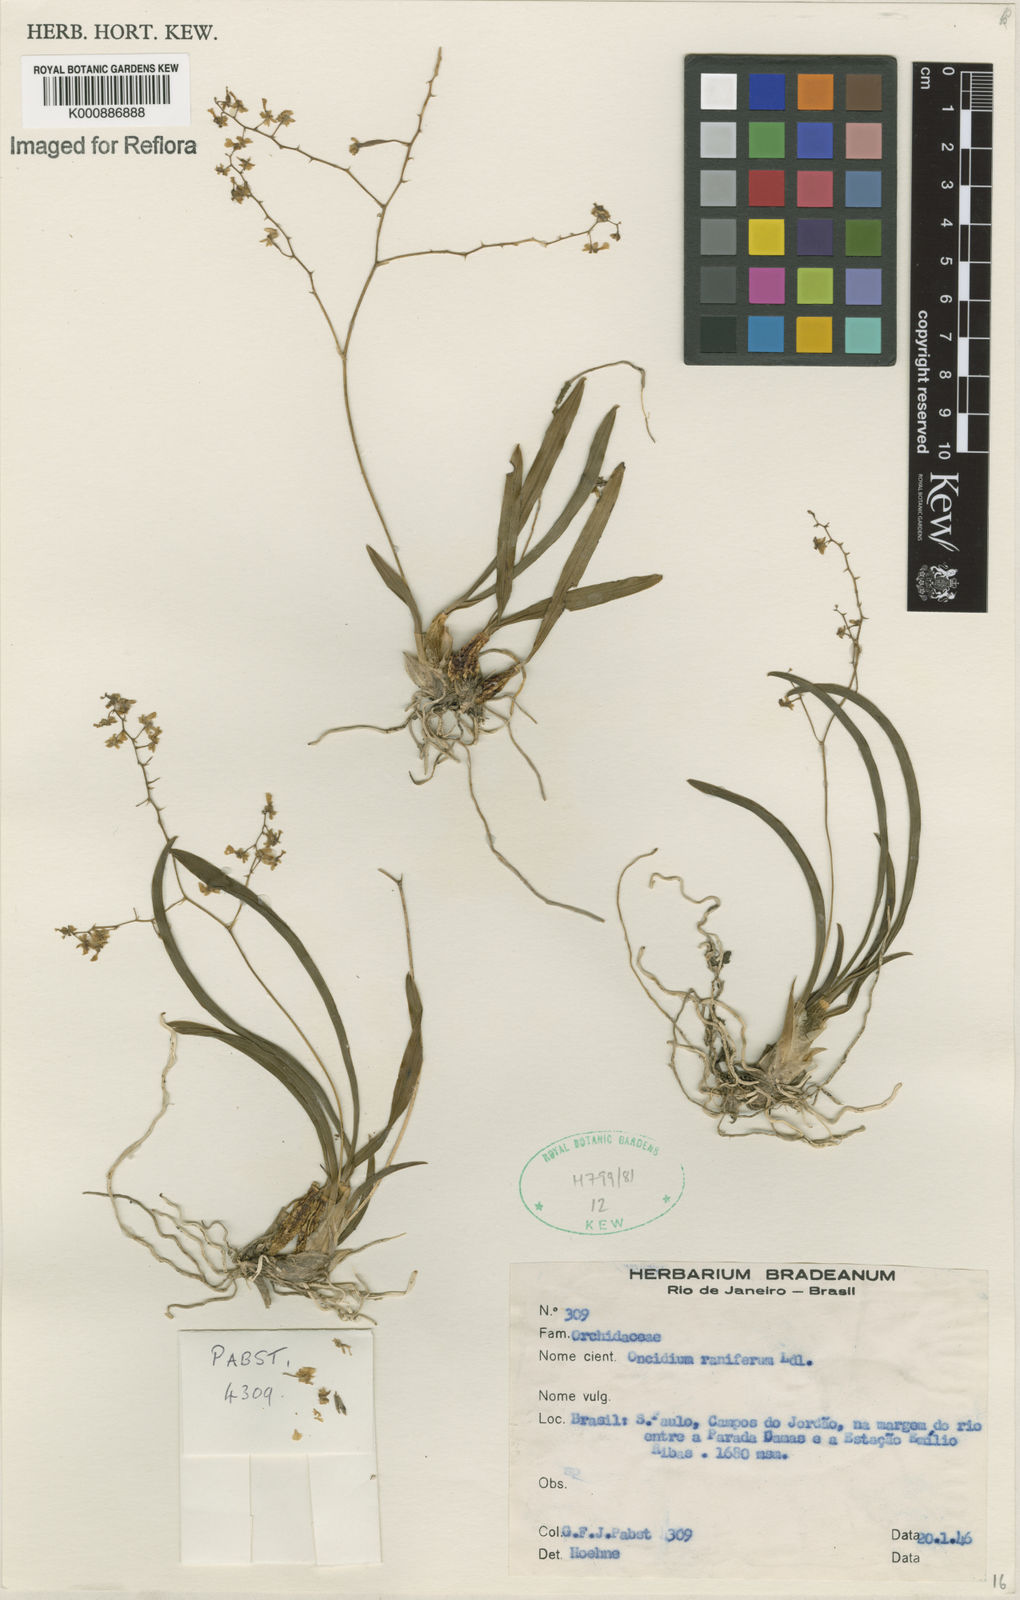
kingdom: Plantae
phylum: Tracheophyta
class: Liliopsida
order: Asparagales
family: Orchidaceae
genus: Gomesa
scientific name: Gomesa ranifera
